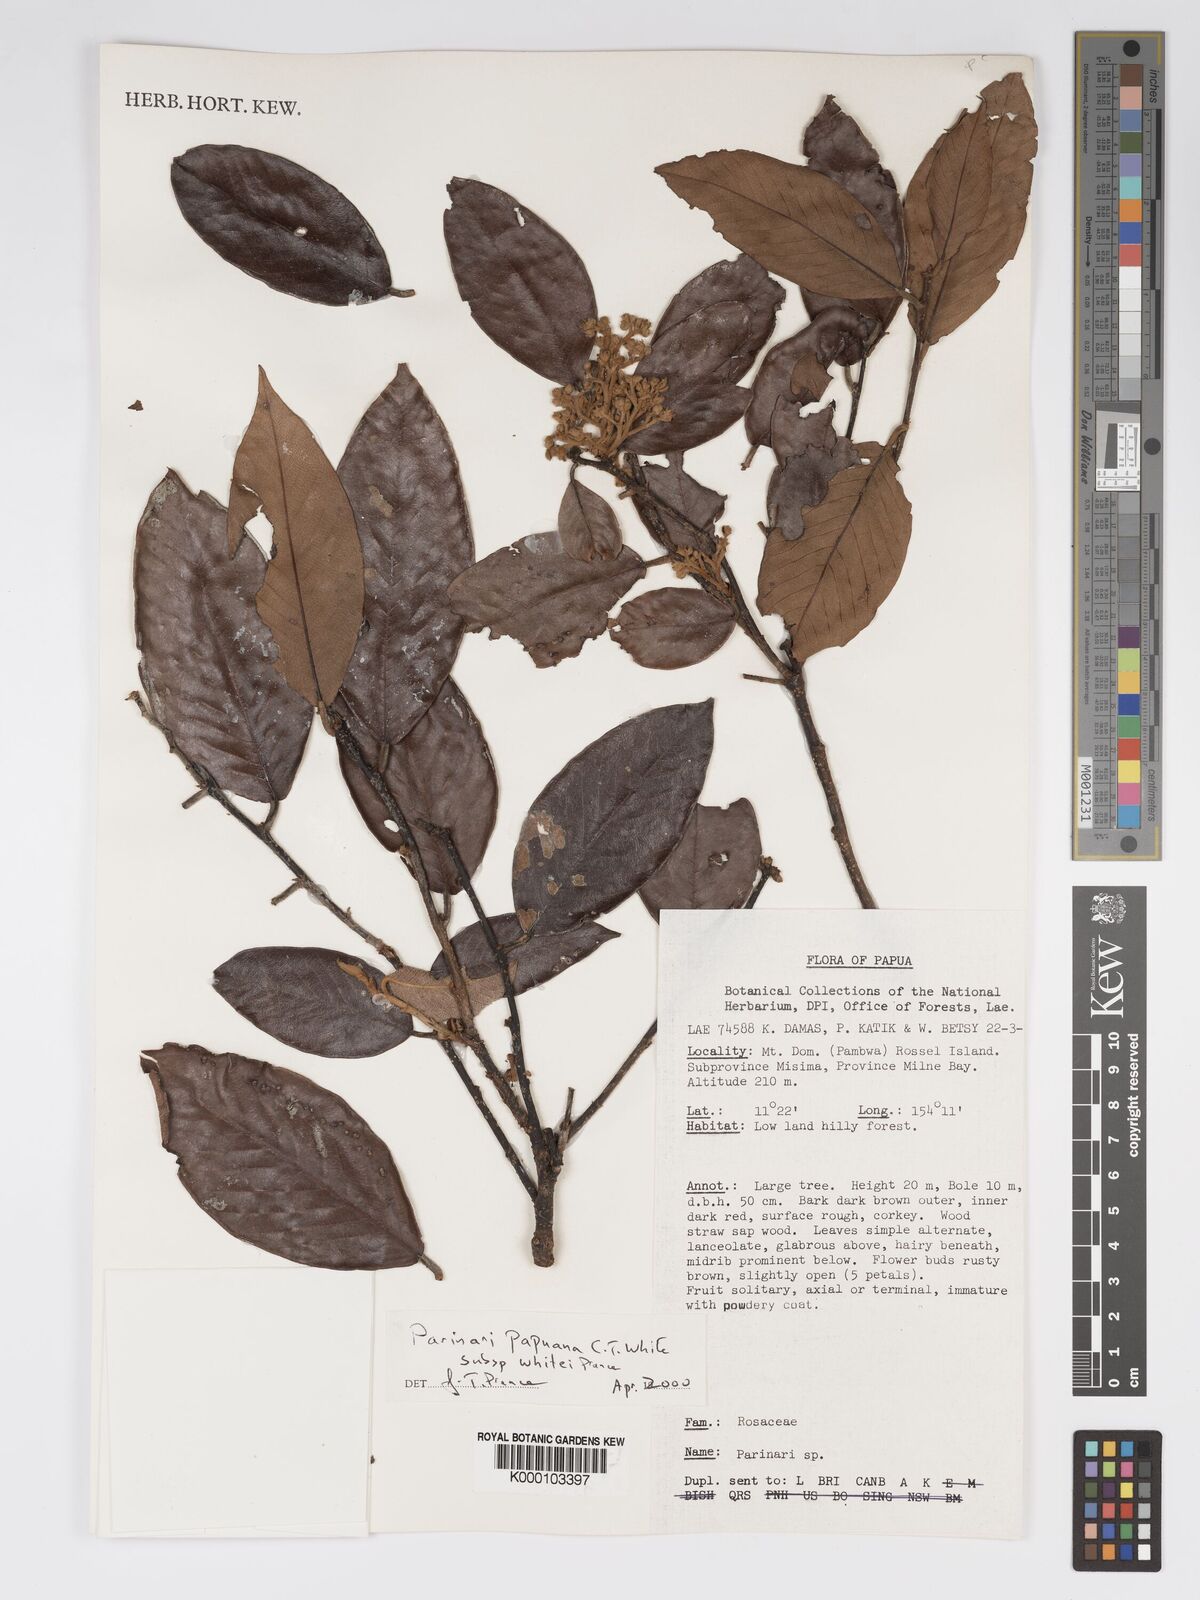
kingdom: Plantae
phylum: Tracheophyta
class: Magnoliopsida
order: Malpighiales
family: Chrysobalanaceae
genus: Parinari
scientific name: Parinari papuana
